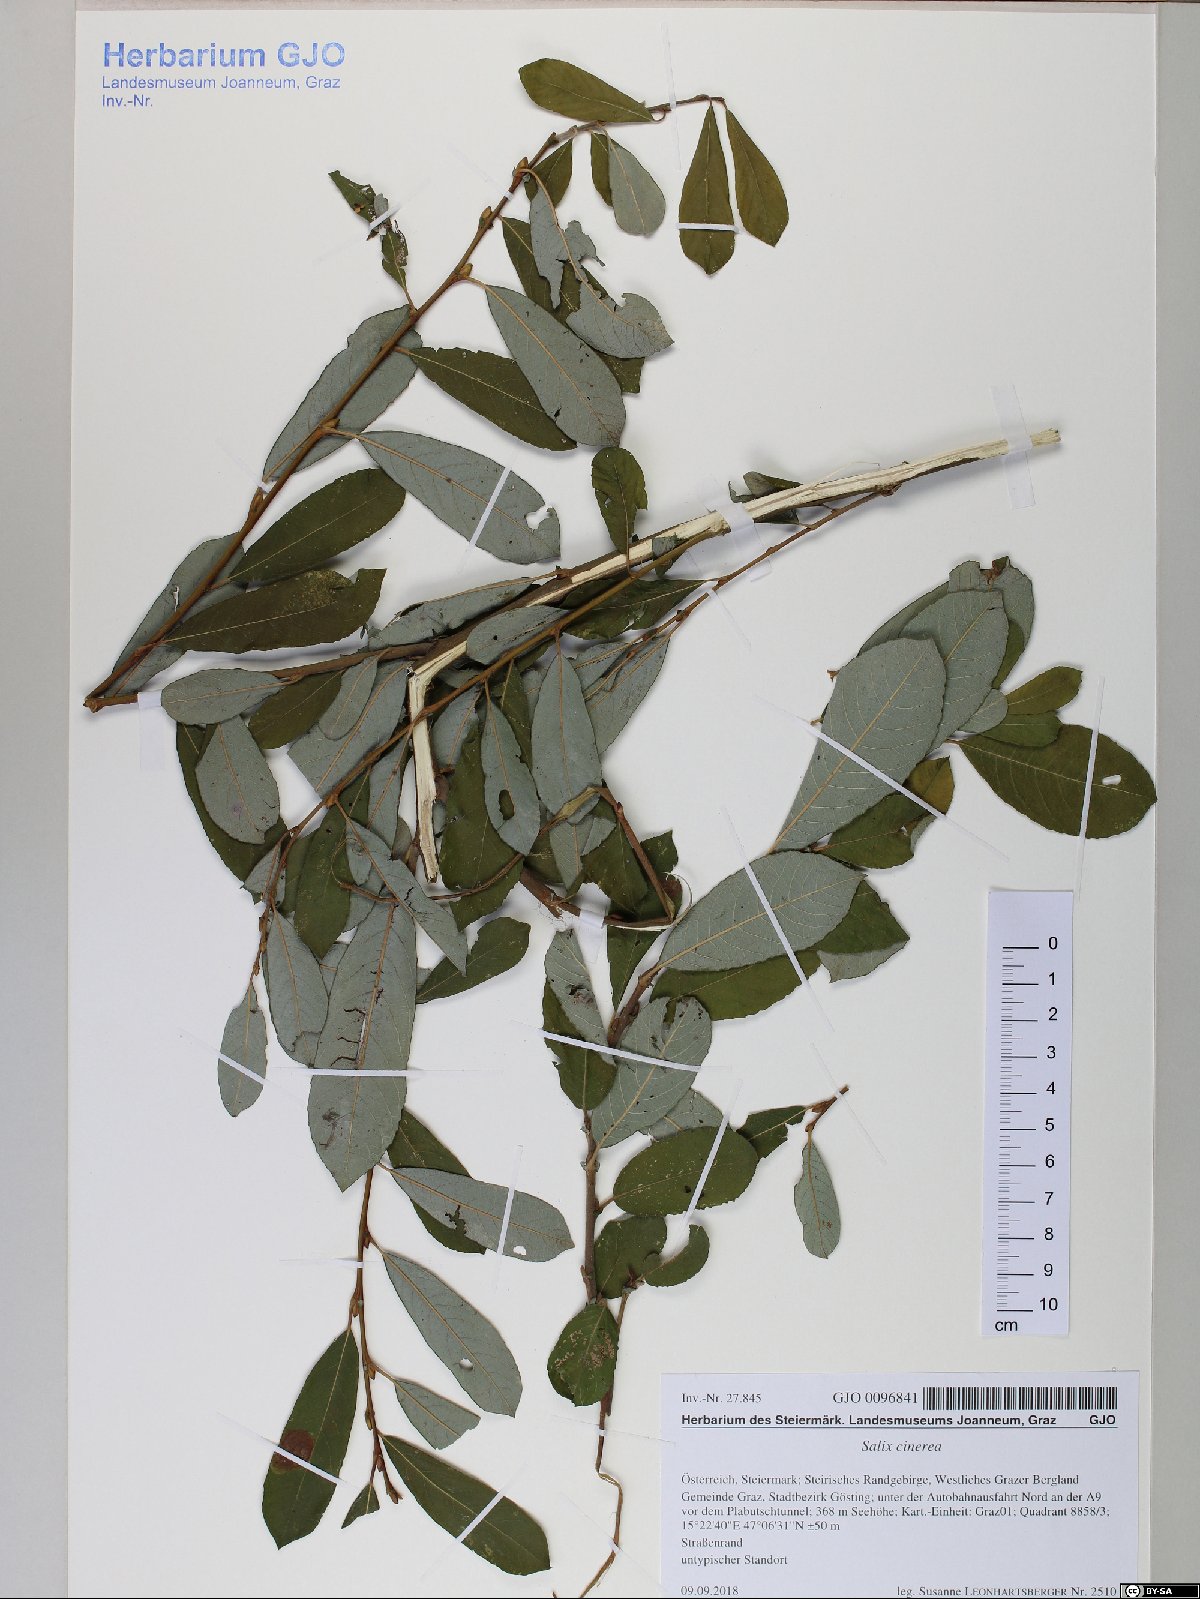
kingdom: Plantae
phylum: Tracheophyta
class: Magnoliopsida
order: Malpighiales
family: Salicaceae
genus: Salix
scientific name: Salix cinerea
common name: Common sallow
